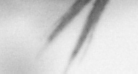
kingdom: Animalia
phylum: Arthropoda
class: Copepoda
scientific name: Copepoda
